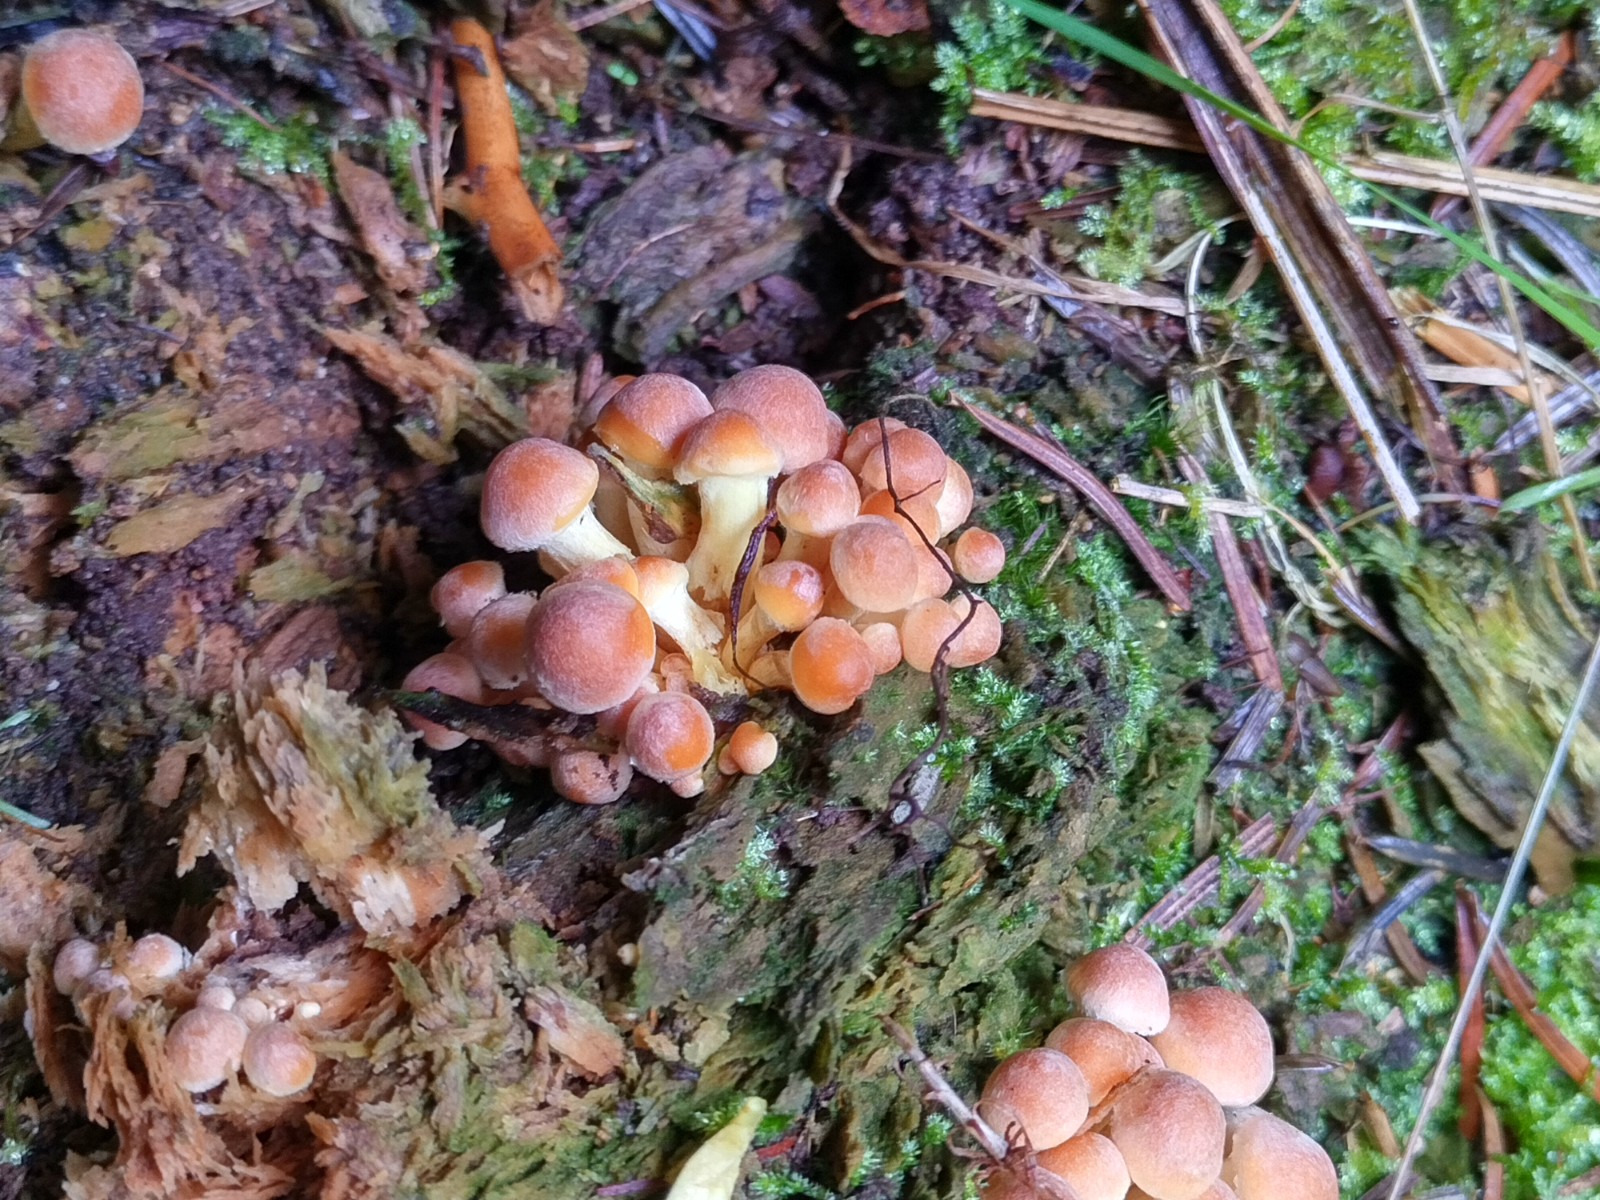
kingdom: Fungi
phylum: Basidiomycota
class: Agaricomycetes
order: Agaricales
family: Strophariaceae
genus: Hypholoma
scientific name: Hypholoma fasciculare
